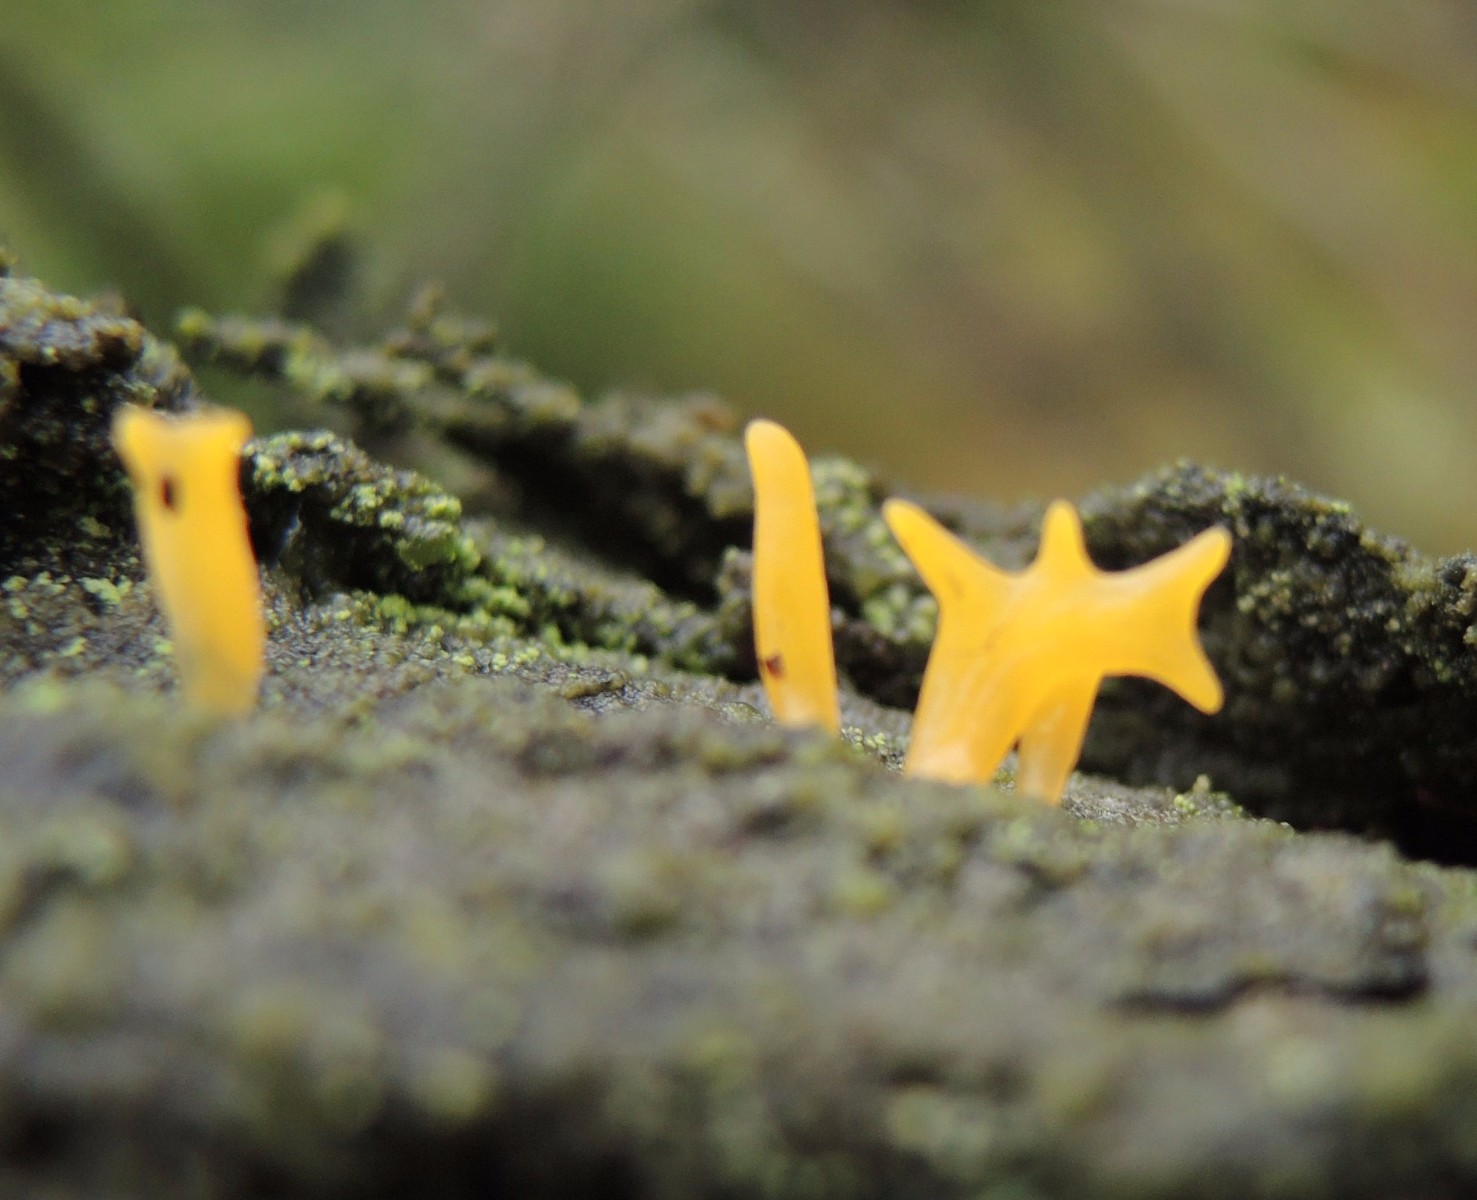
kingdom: Fungi
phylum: Basidiomycota
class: Dacrymycetes
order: Dacrymycetales
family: Dacrymycetaceae
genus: Calocera
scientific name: Calocera furcata
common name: fyrre-guldgaffel
